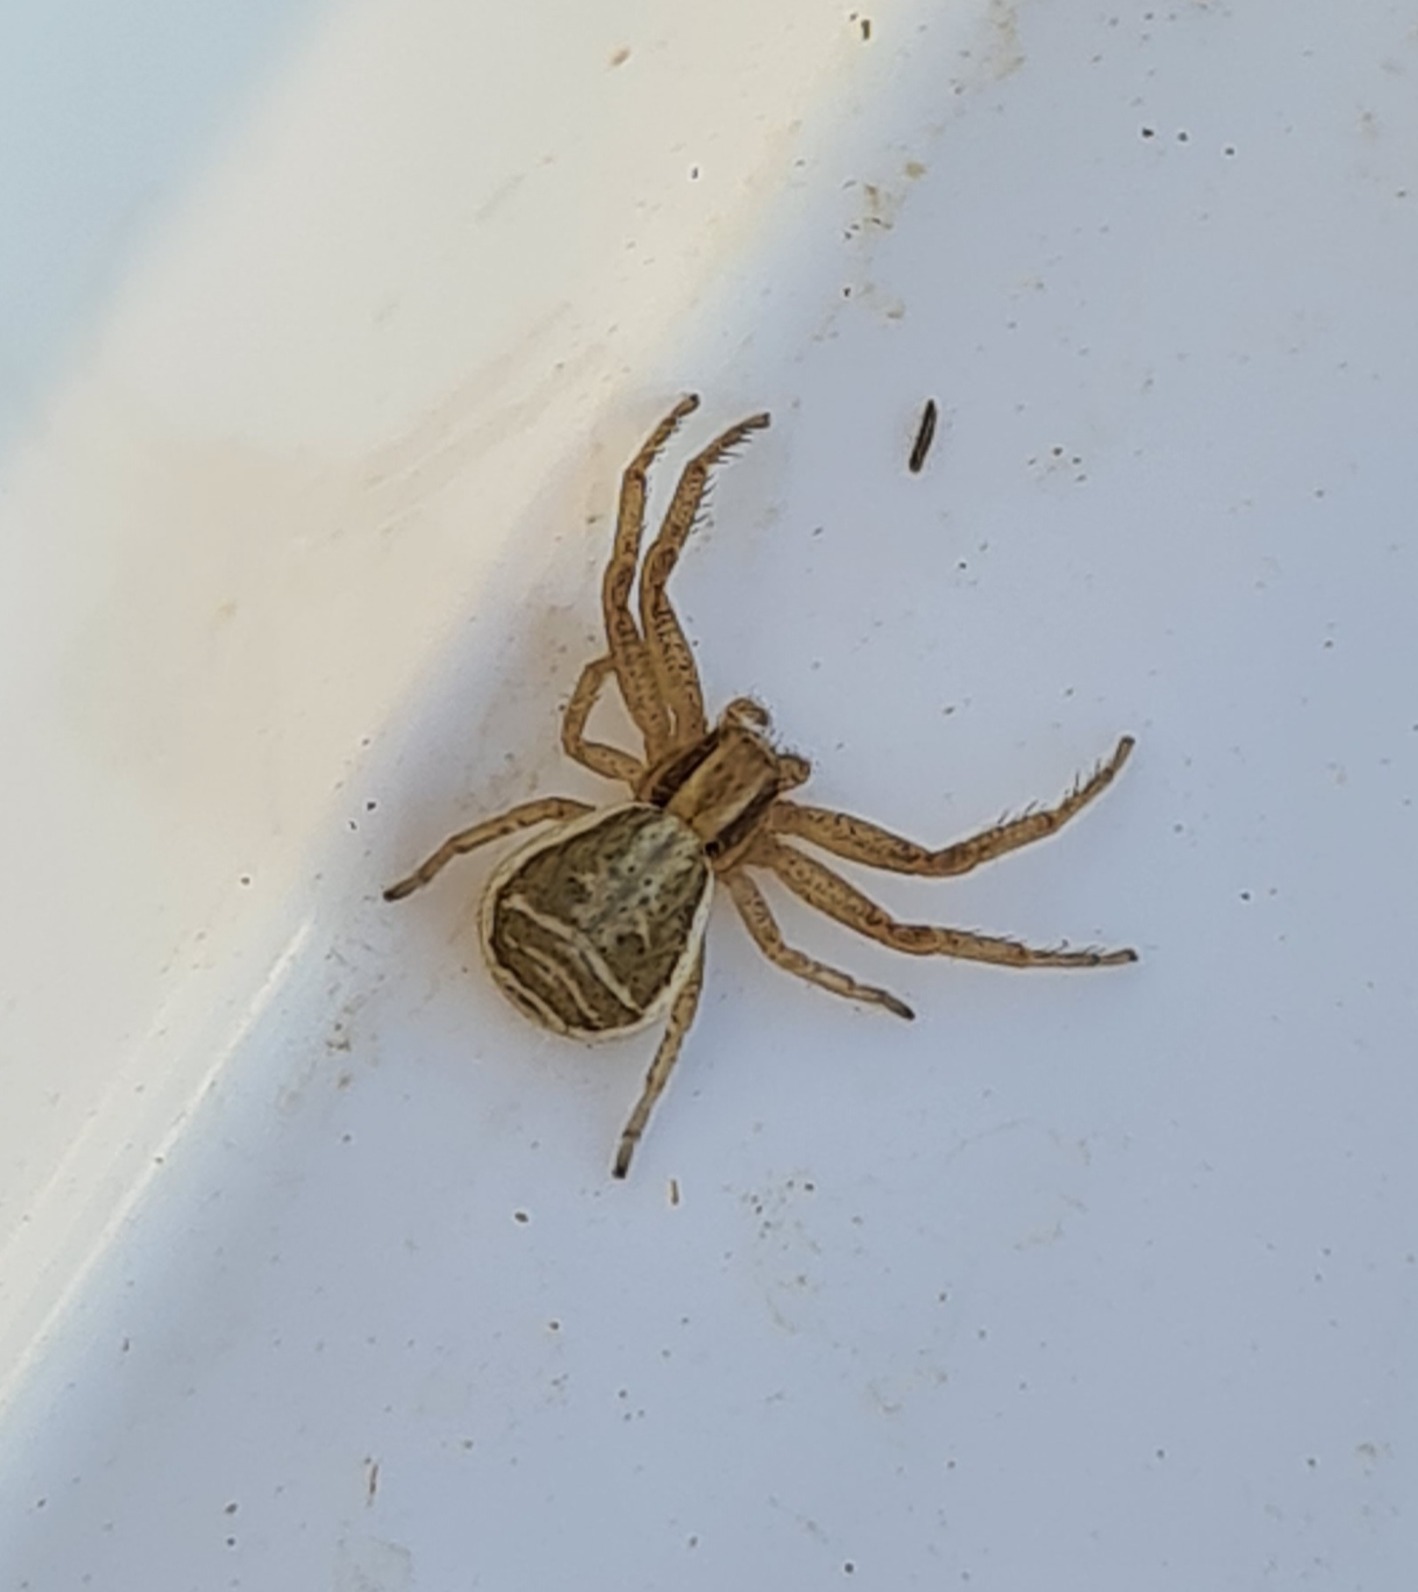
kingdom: Animalia
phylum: Arthropoda
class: Arachnida
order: Araneae
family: Thomisidae
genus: Xysticus
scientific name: Xysticus ulmi
